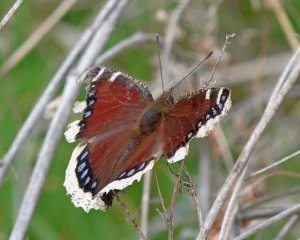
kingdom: Animalia
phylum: Arthropoda
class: Insecta
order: Lepidoptera
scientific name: Lepidoptera
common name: Butterflies
